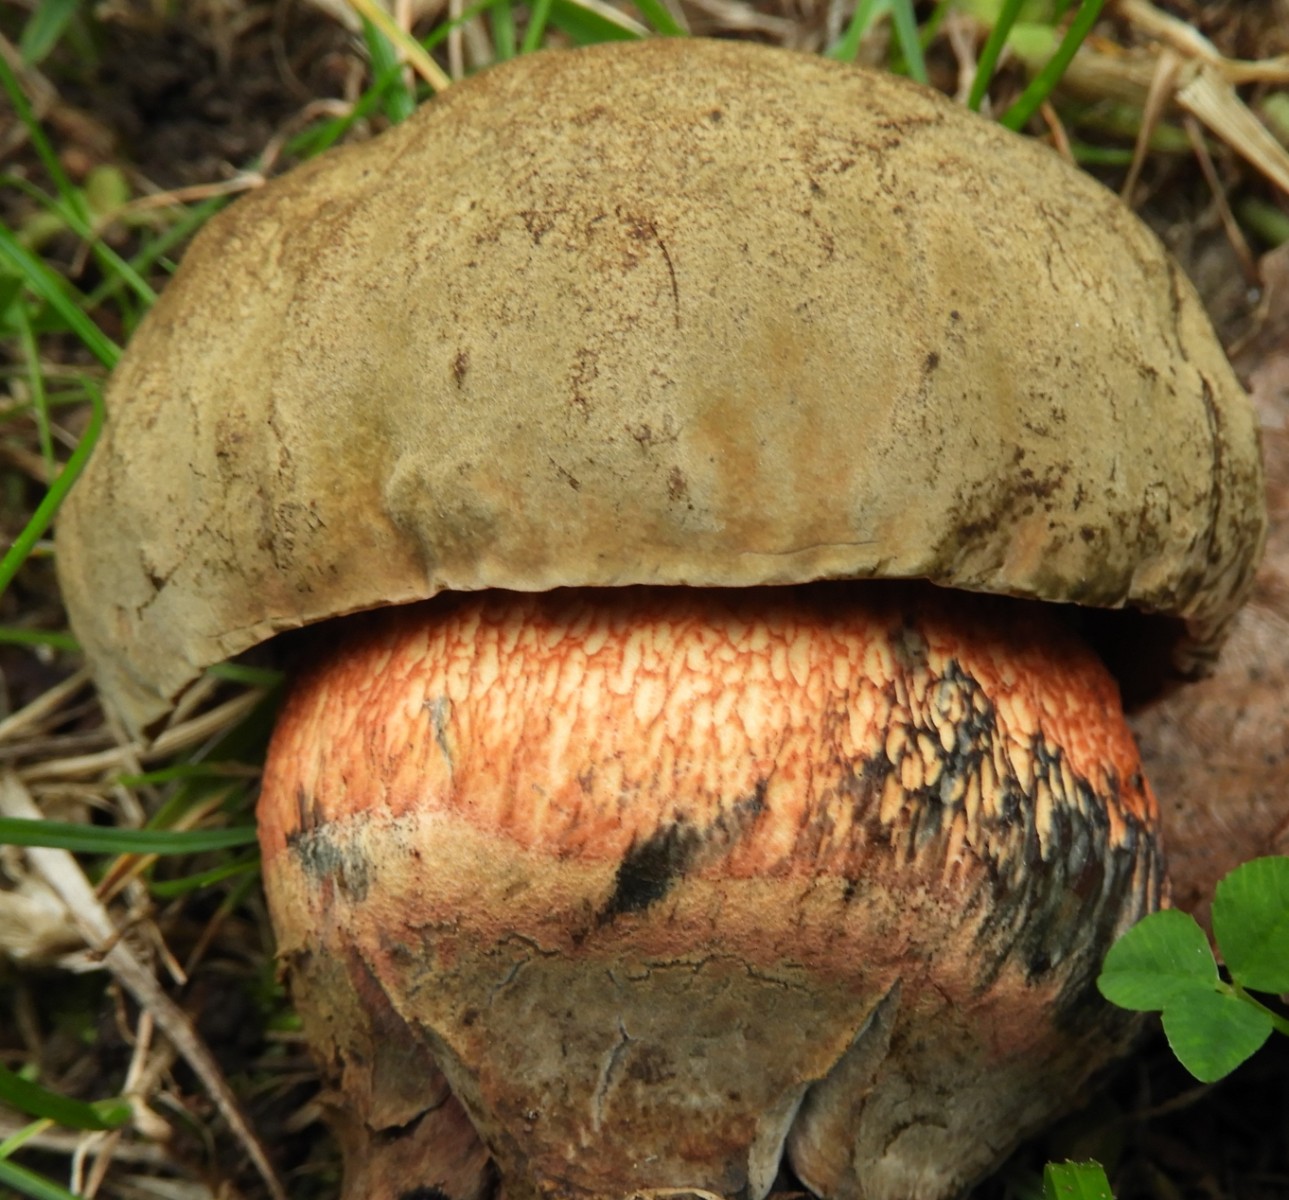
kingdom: Fungi
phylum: Basidiomycota
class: Agaricomycetes
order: Boletales
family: Boletaceae
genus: Suillellus
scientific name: Suillellus luridus
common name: netstokket indigorørhat
